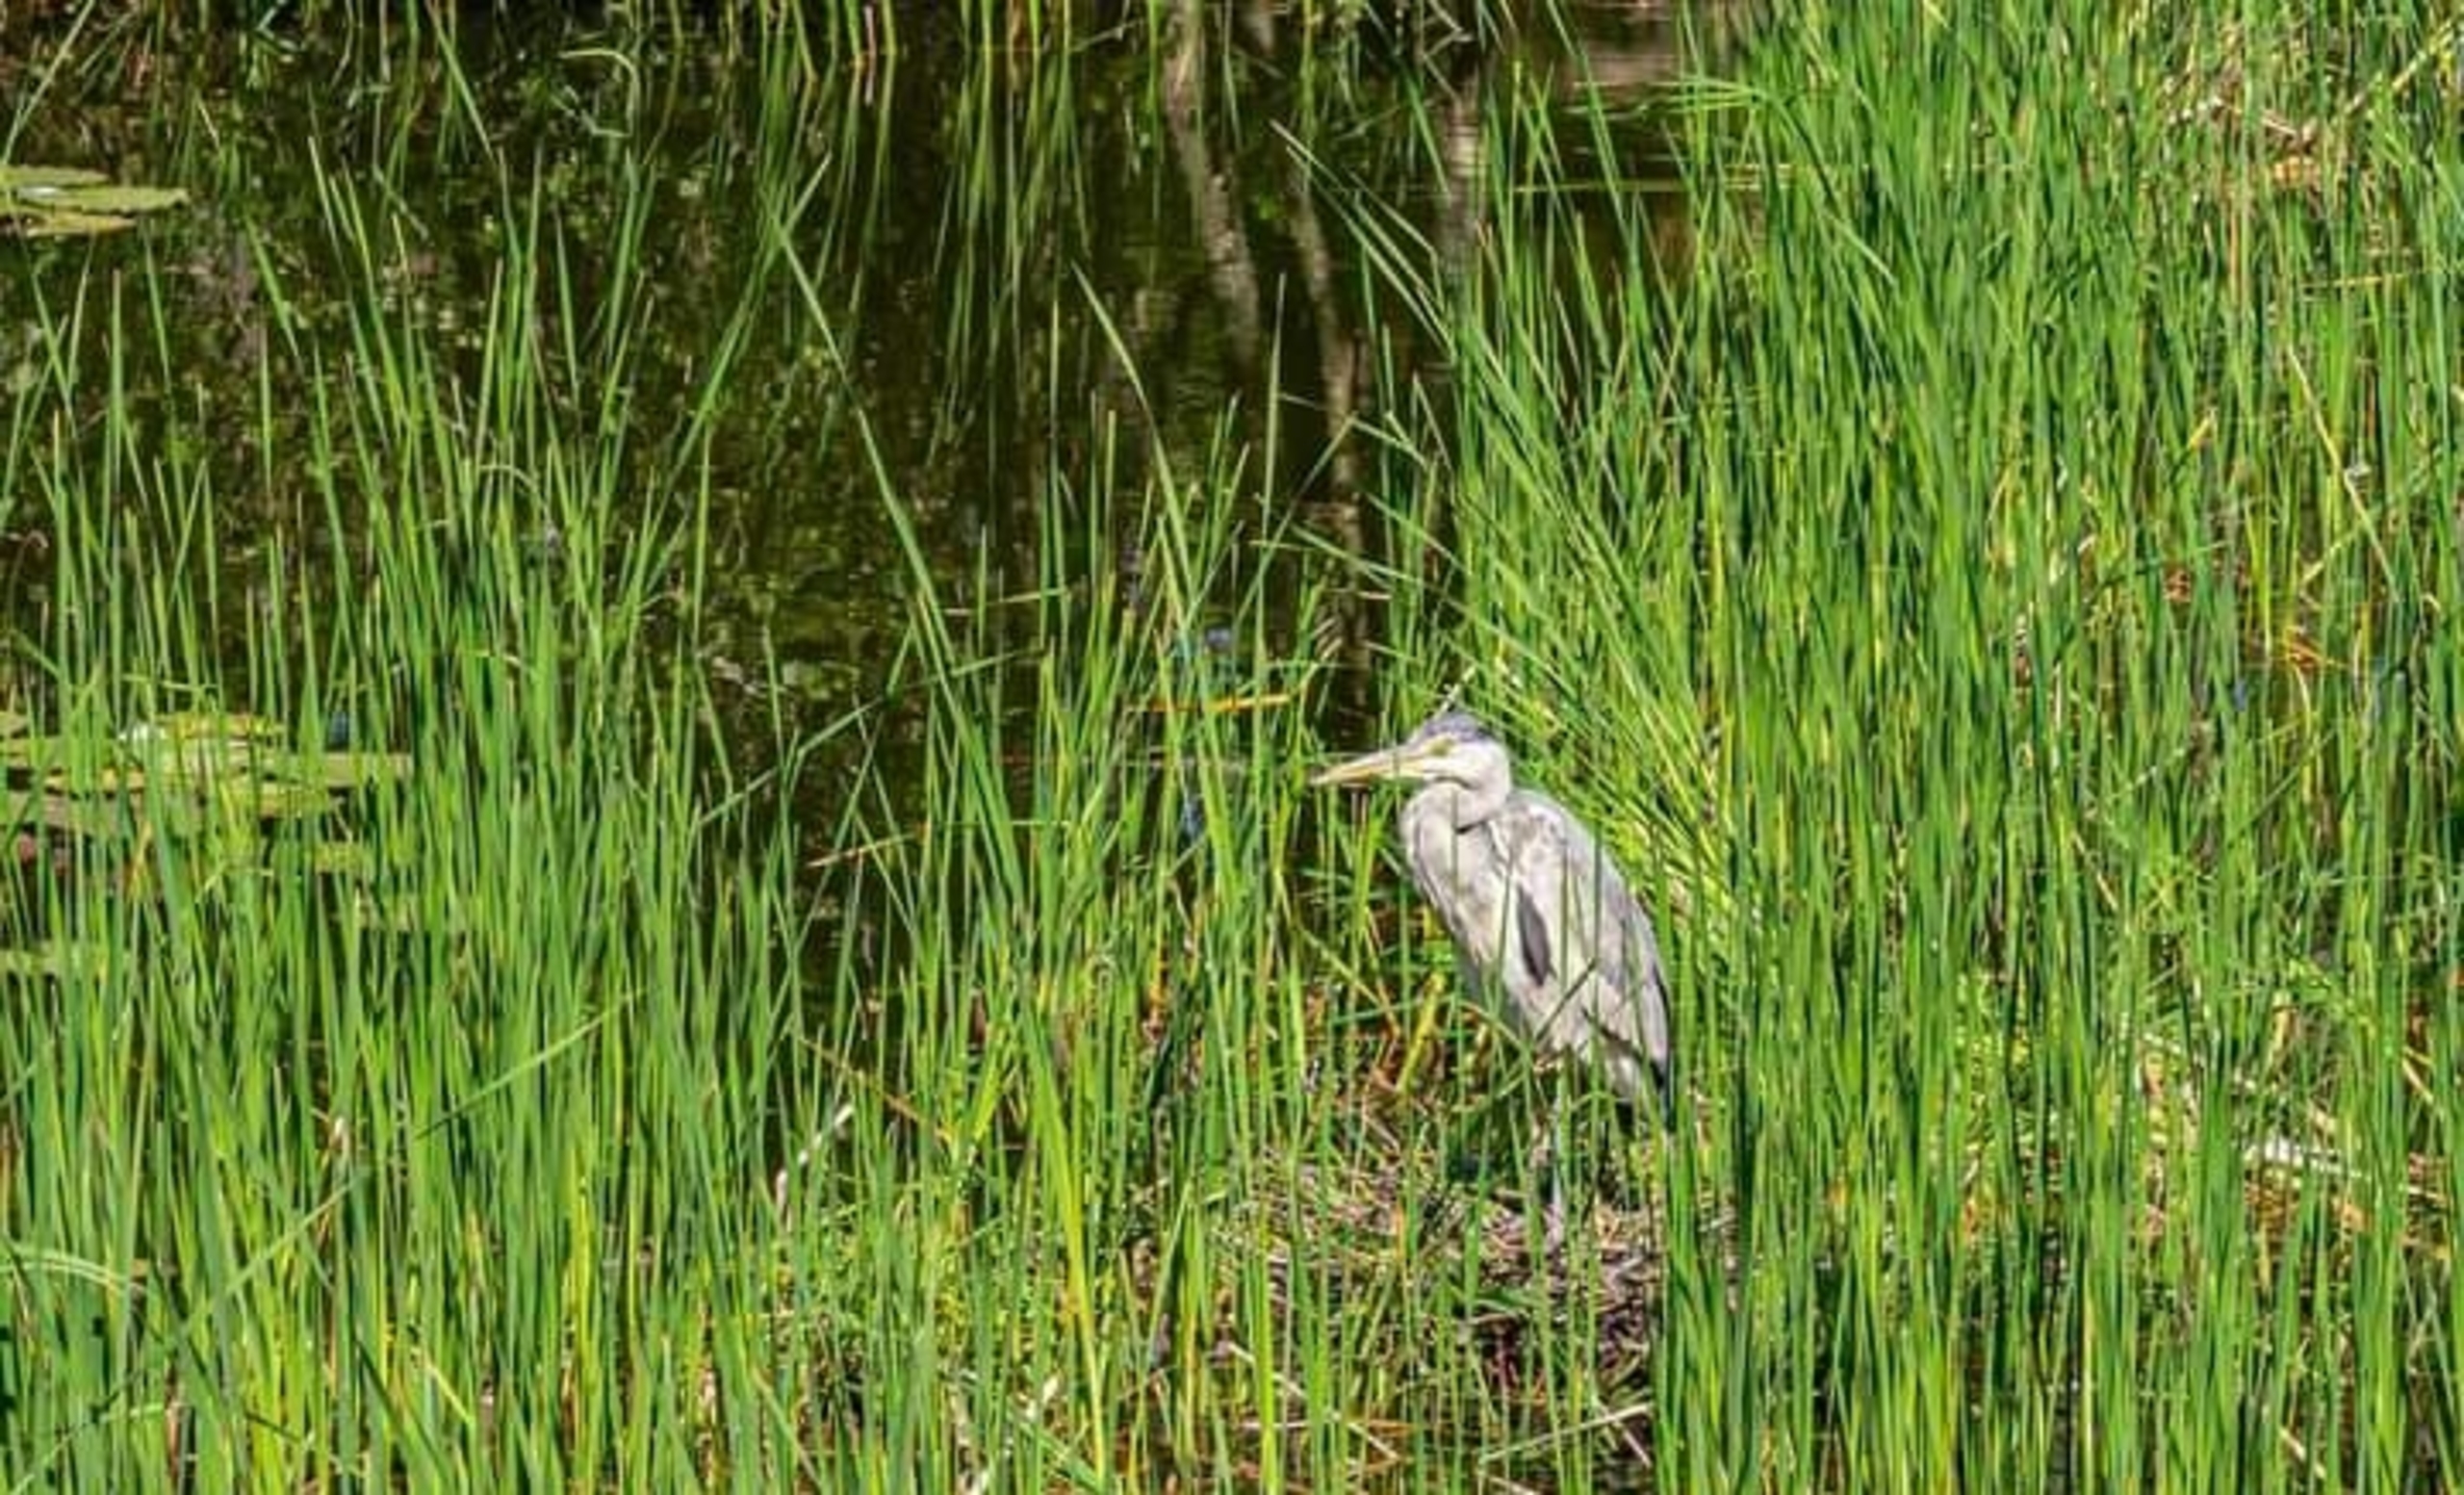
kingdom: Animalia
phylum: Chordata
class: Aves
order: Pelecaniformes
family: Ardeidae
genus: Ardea
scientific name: Ardea cinerea
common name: Fiskehejre
